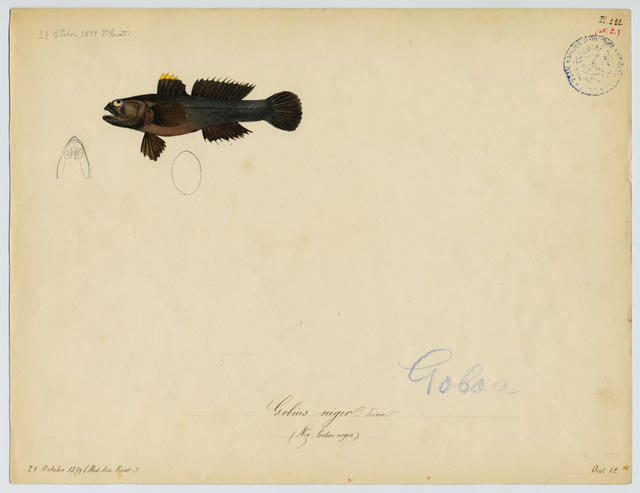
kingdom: Animalia
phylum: Chordata
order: Perciformes
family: Gobiidae
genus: Gobius
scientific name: Gobius niger
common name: Black goby
